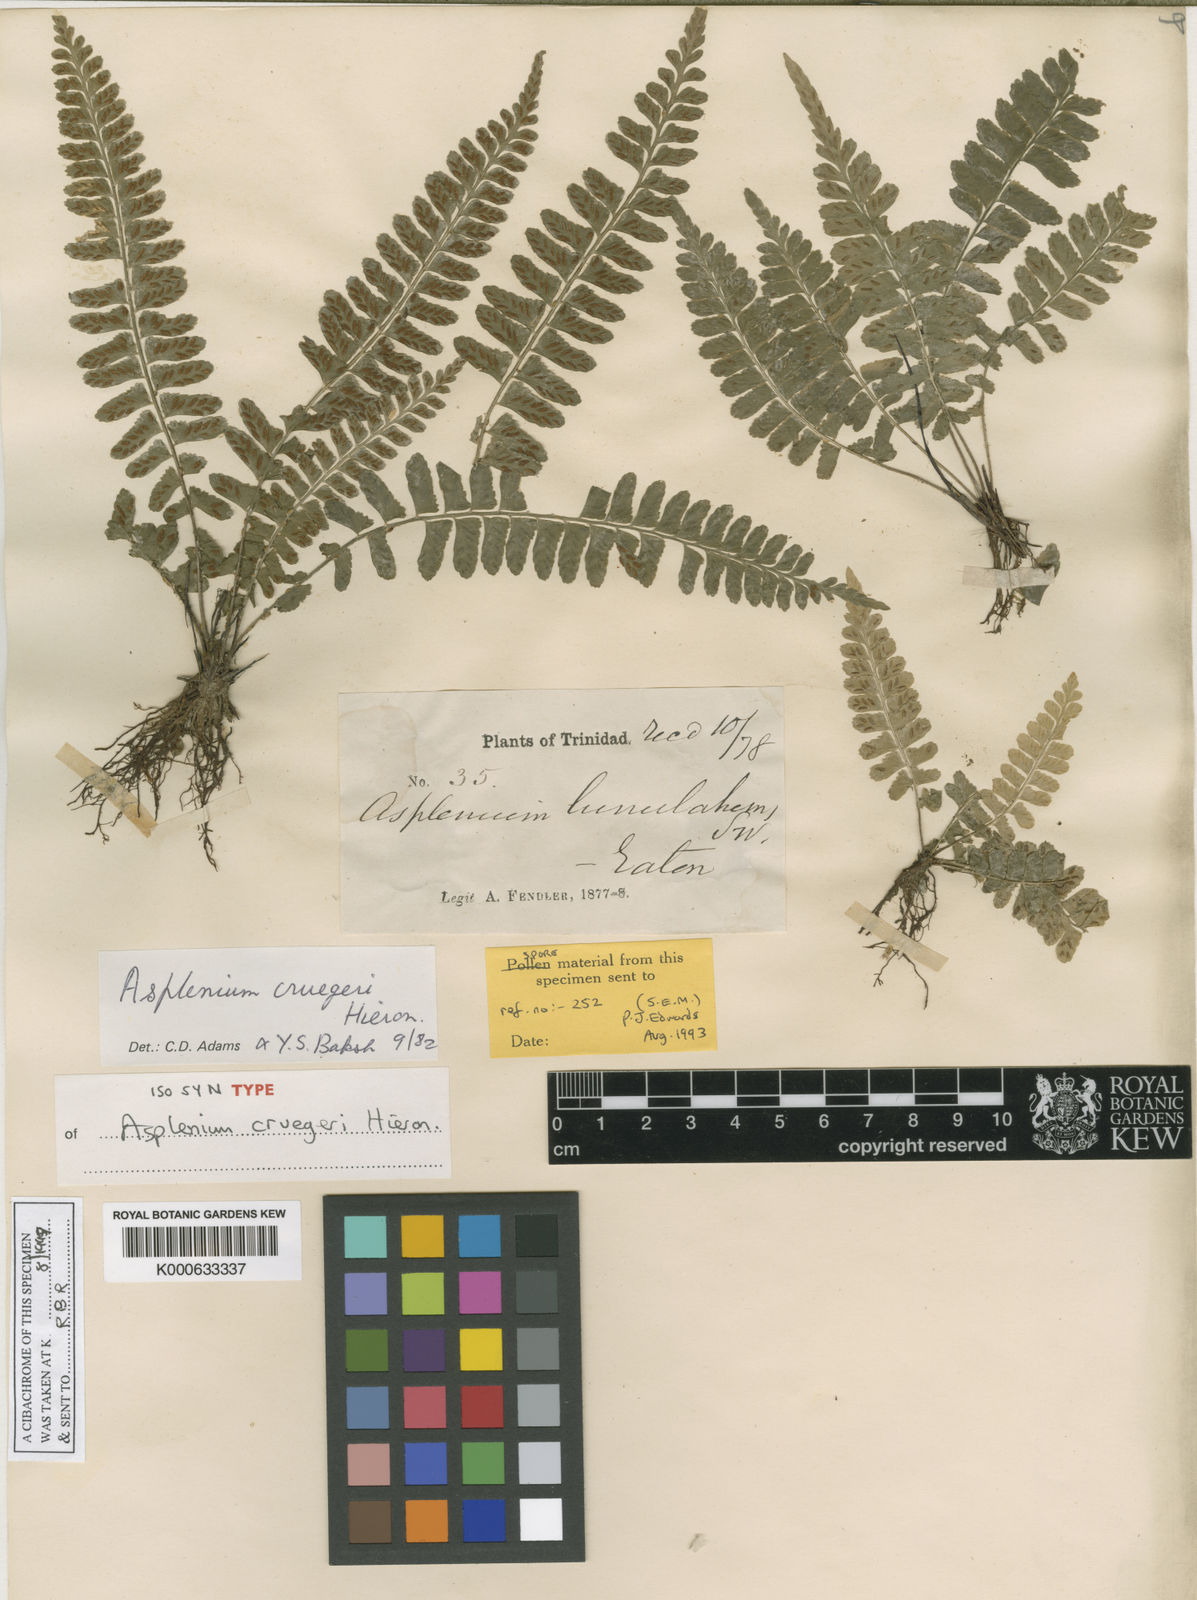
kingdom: Plantae
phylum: Tracheophyta
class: Polypodiopsida
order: Polypodiales
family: Aspleniaceae
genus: Asplenium
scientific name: Asplenium cruegeri
